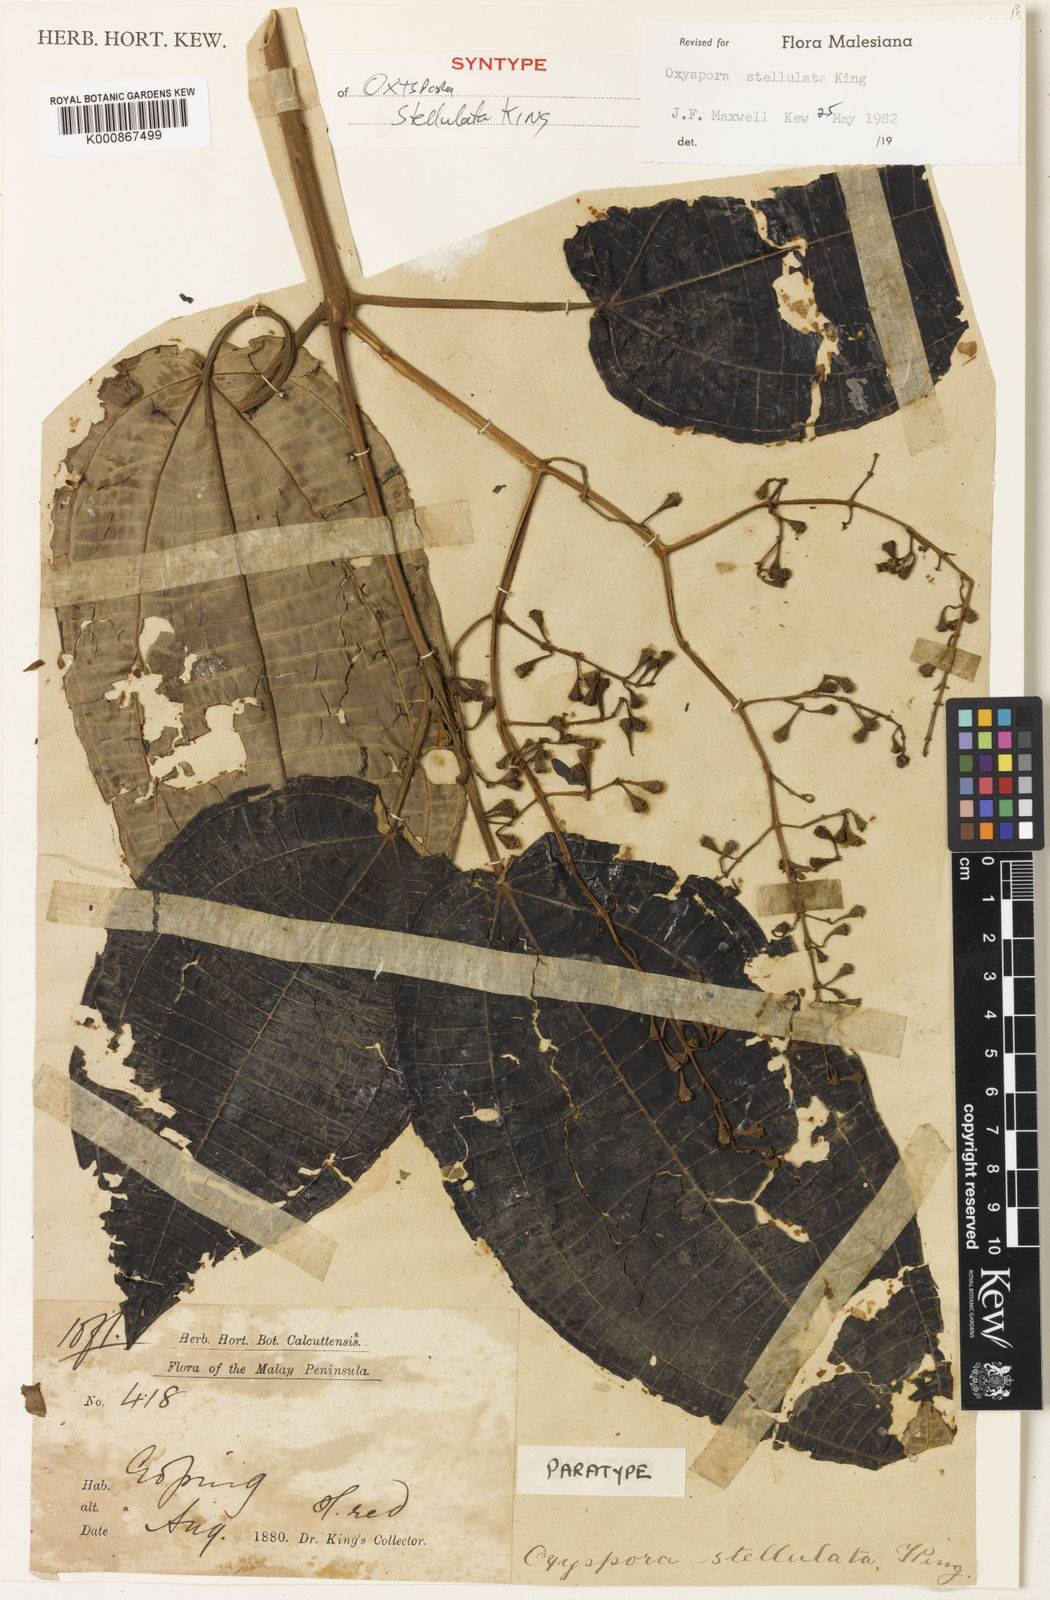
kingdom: Plantae
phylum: Tracheophyta
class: Magnoliopsida
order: Myrtales
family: Melastomataceae
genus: Hylocharis
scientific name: Hylocharis stellulata
